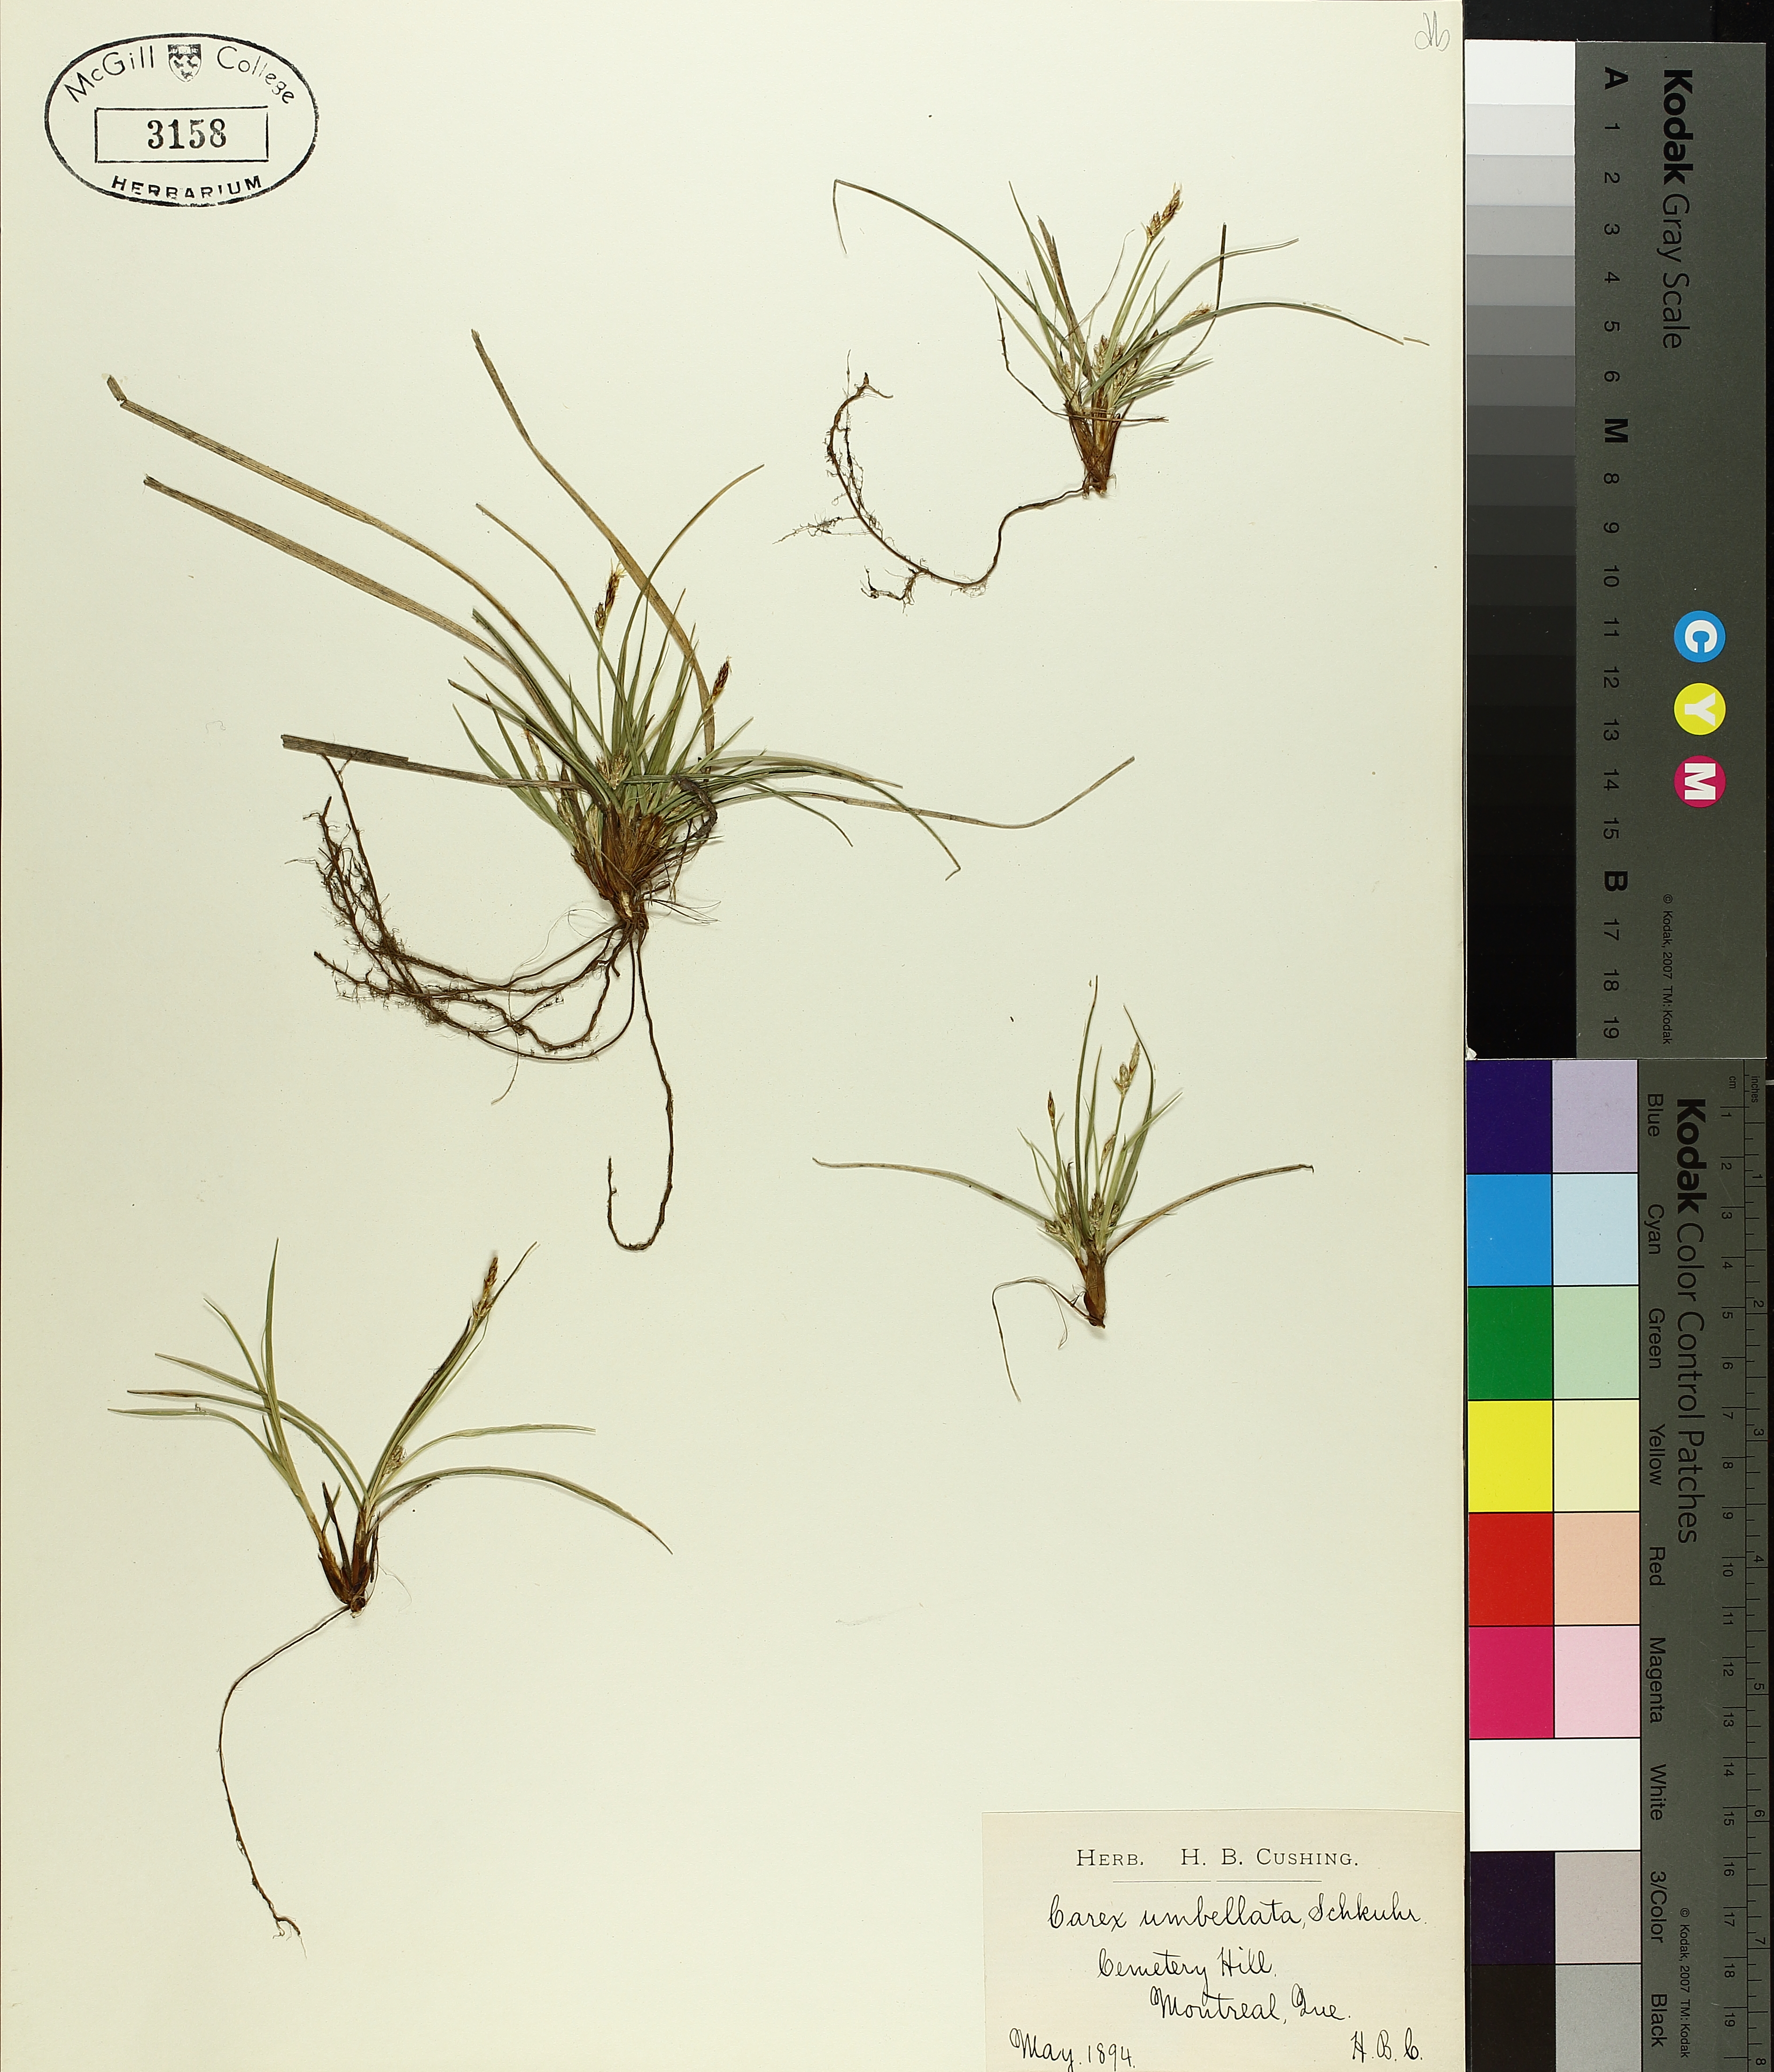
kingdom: Plantae
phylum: Tracheophyta
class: Liliopsida
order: Poales
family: Cyperaceae
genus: Carex
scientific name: Carex umbellata
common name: Early oak sedge
